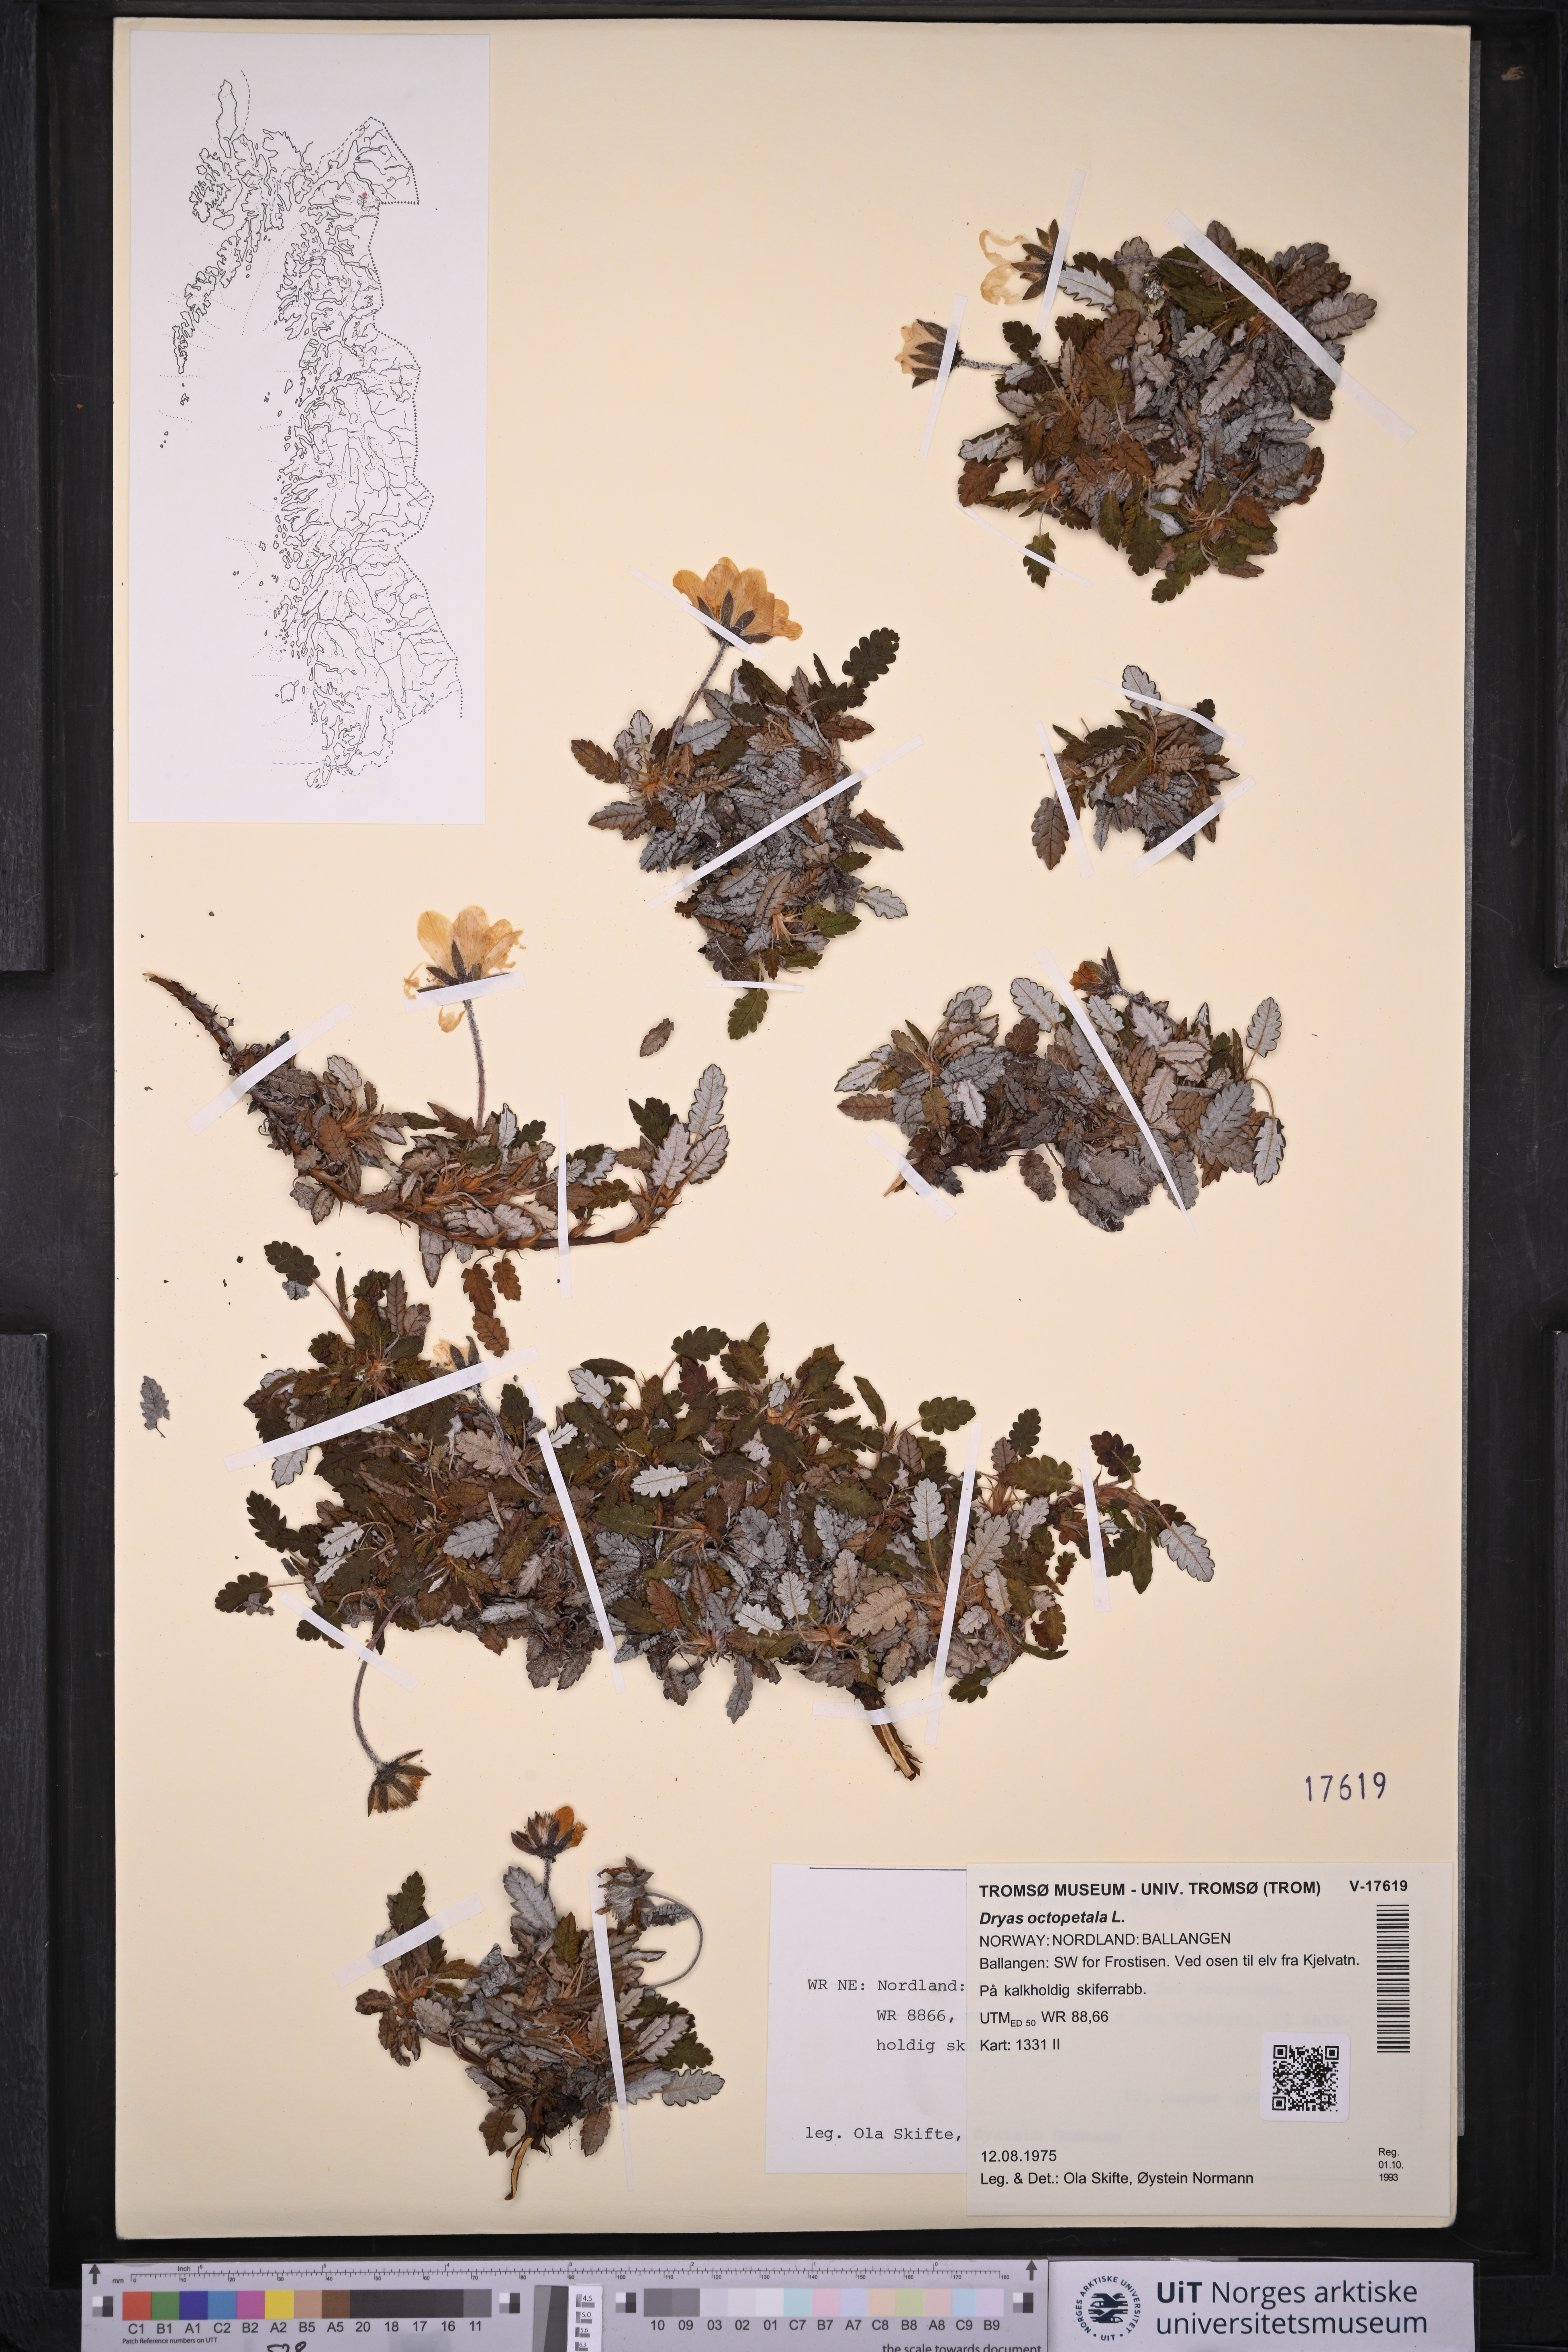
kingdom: Plantae
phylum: Tracheophyta
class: Magnoliopsida
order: Rosales
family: Rosaceae
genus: Dryas
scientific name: Dryas octopetala
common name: Eight-petal mountain-avens
